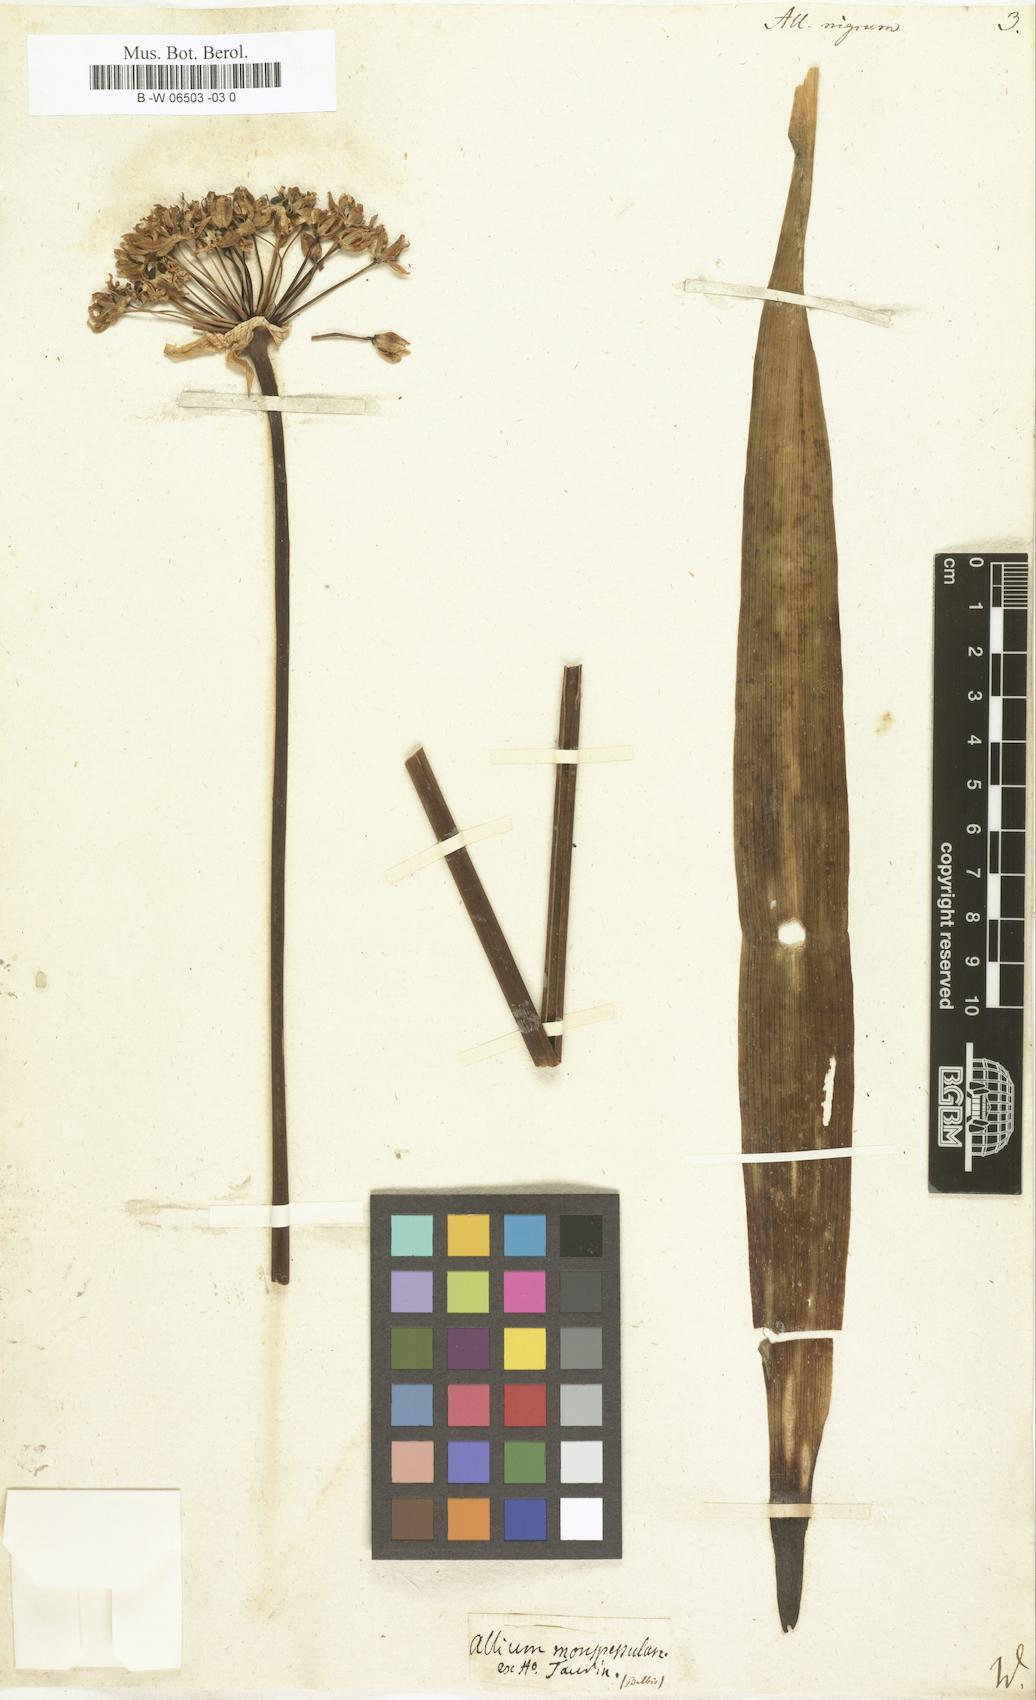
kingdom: Plantae
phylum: Tracheophyta
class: Liliopsida
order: Asparagales
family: Amaryllidaceae
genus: Allium
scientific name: Allium nigrum
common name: Black garlic
